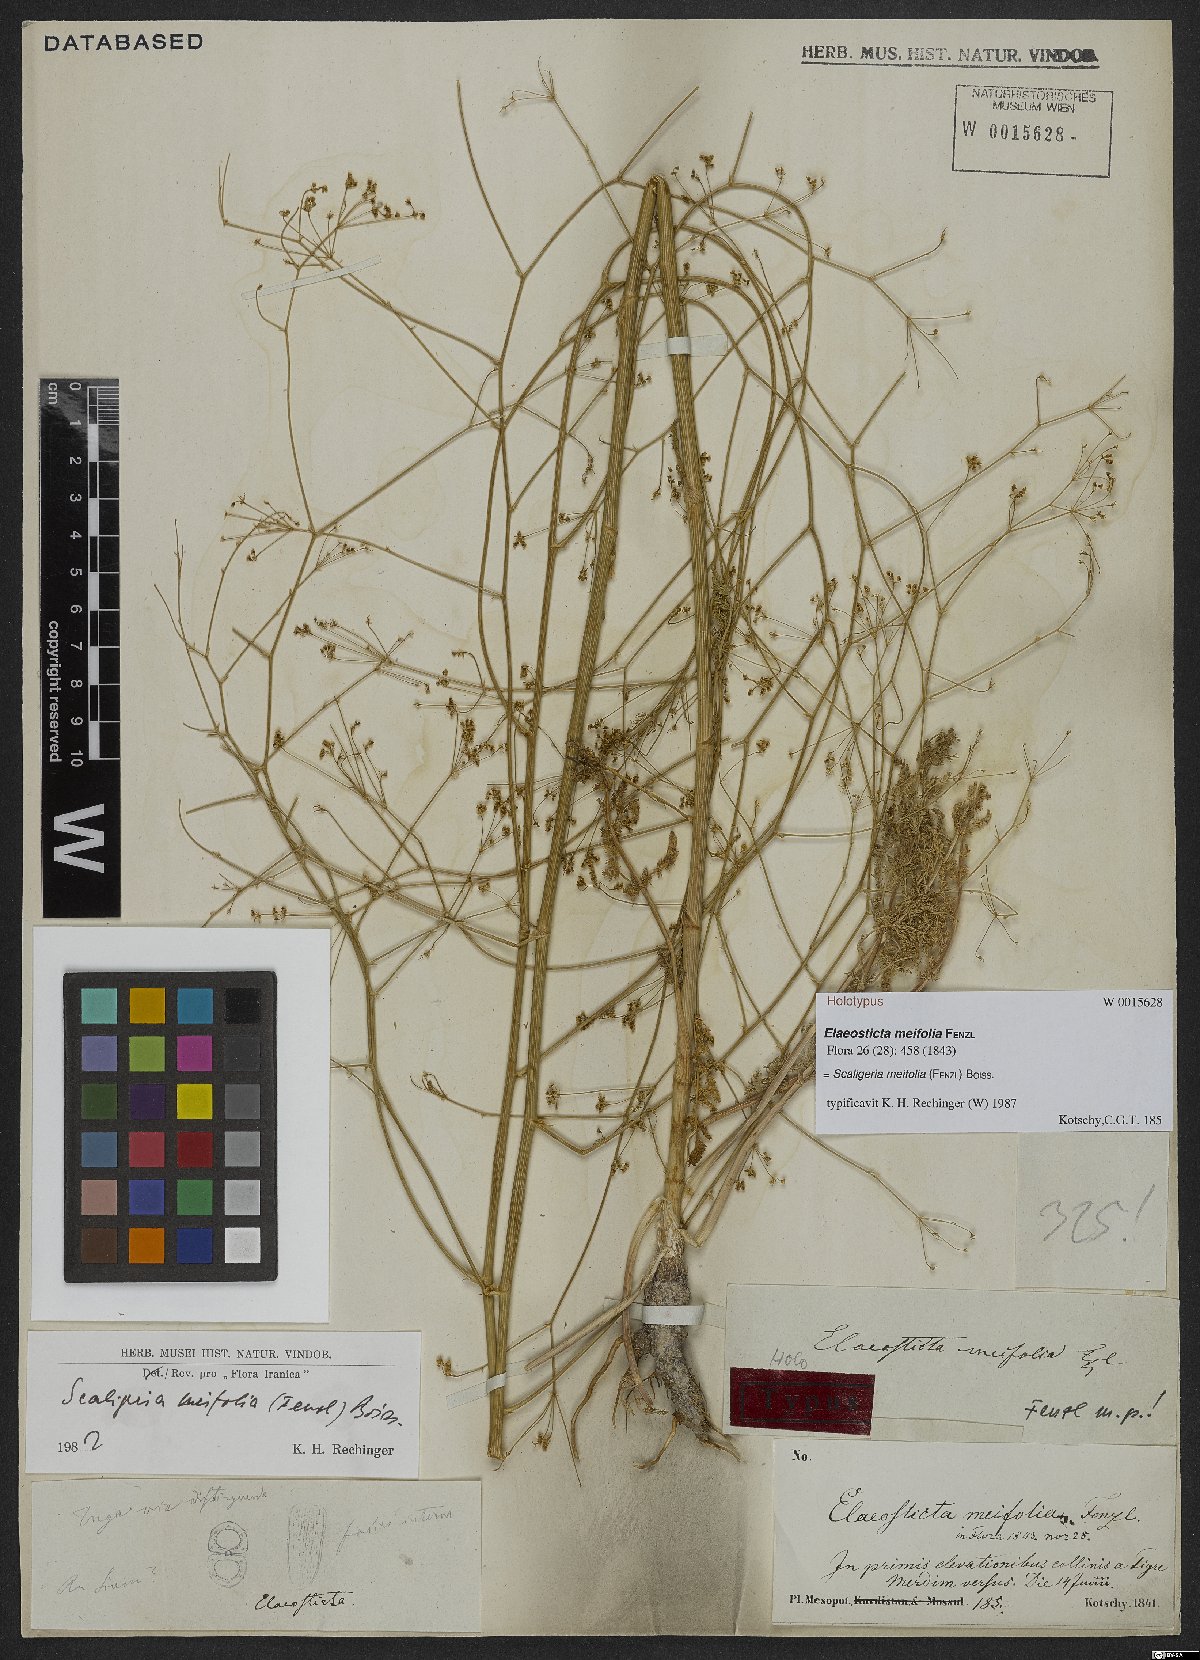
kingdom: Plantae
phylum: Tracheophyta
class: Magnoliopsida
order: Apiales
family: Apiaceae
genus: Elaeosticta
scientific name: Elaeosticta meifolia
